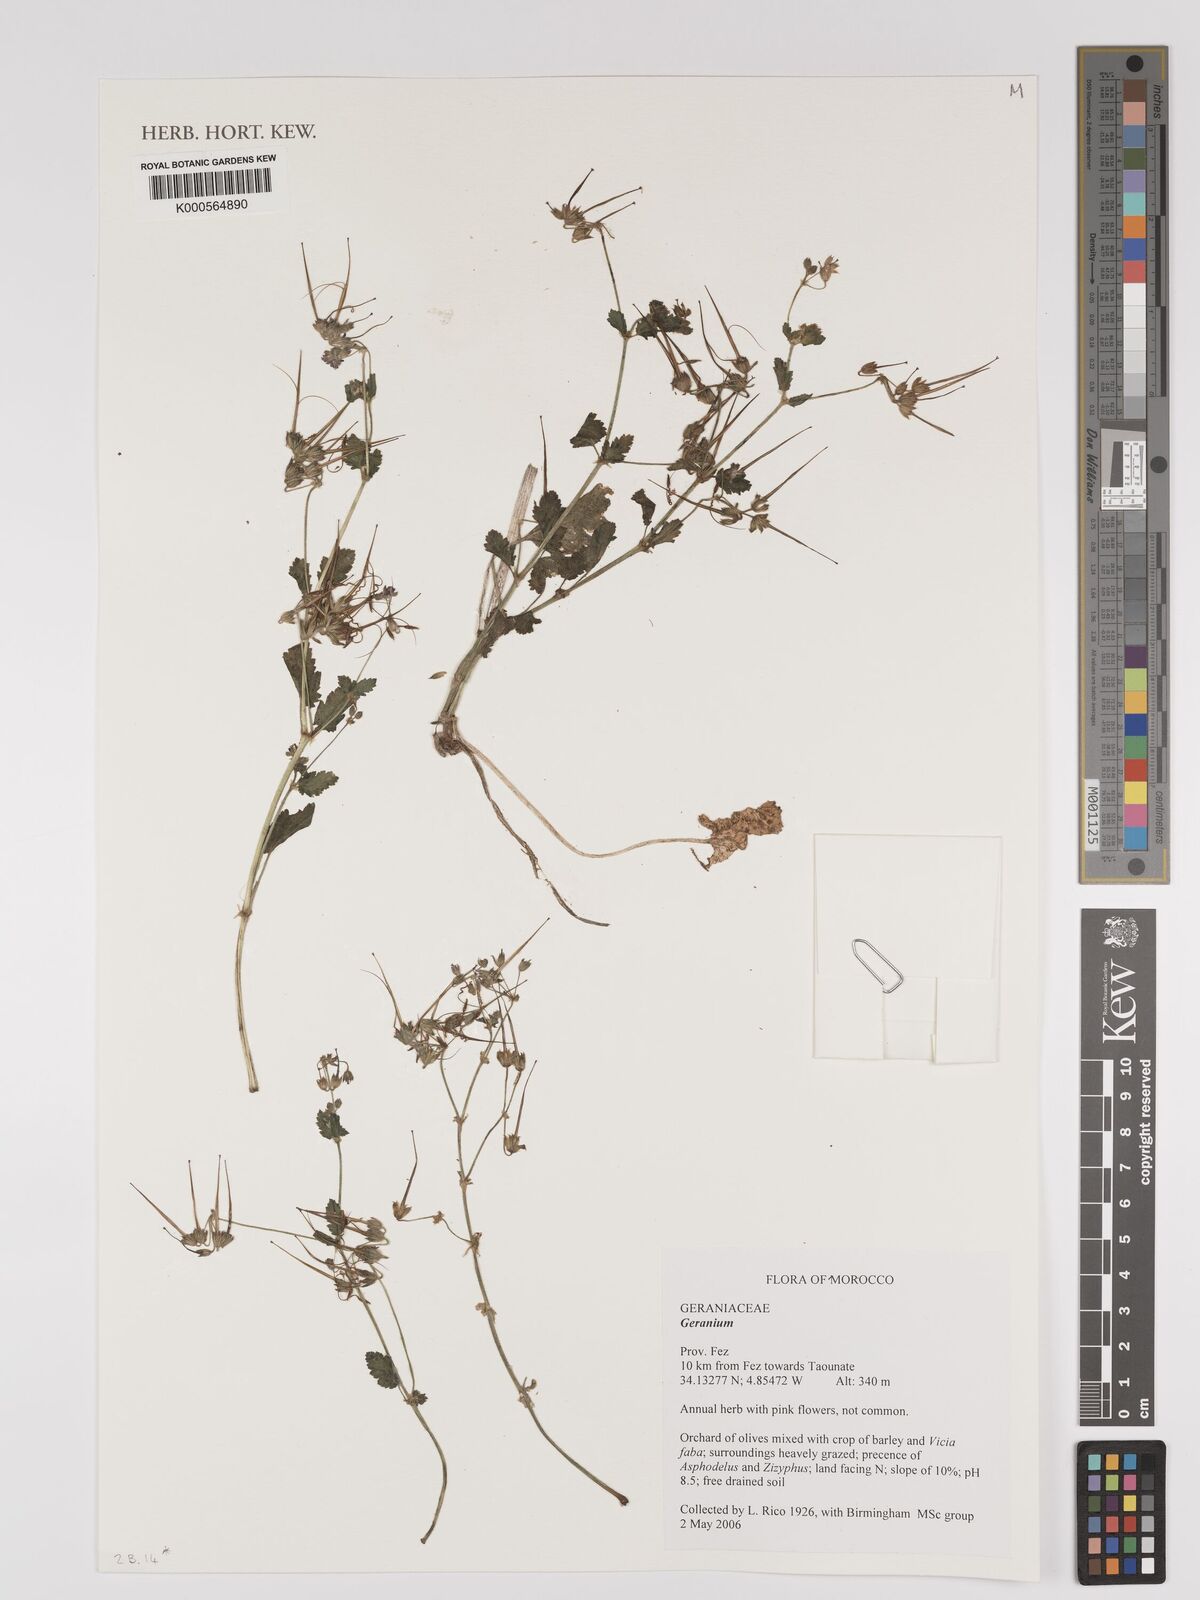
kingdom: Plantae
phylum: Tracheophyta
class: Magnoliopsida
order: Geraniales
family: Geraniaceae
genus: Geranium
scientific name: Geranium
